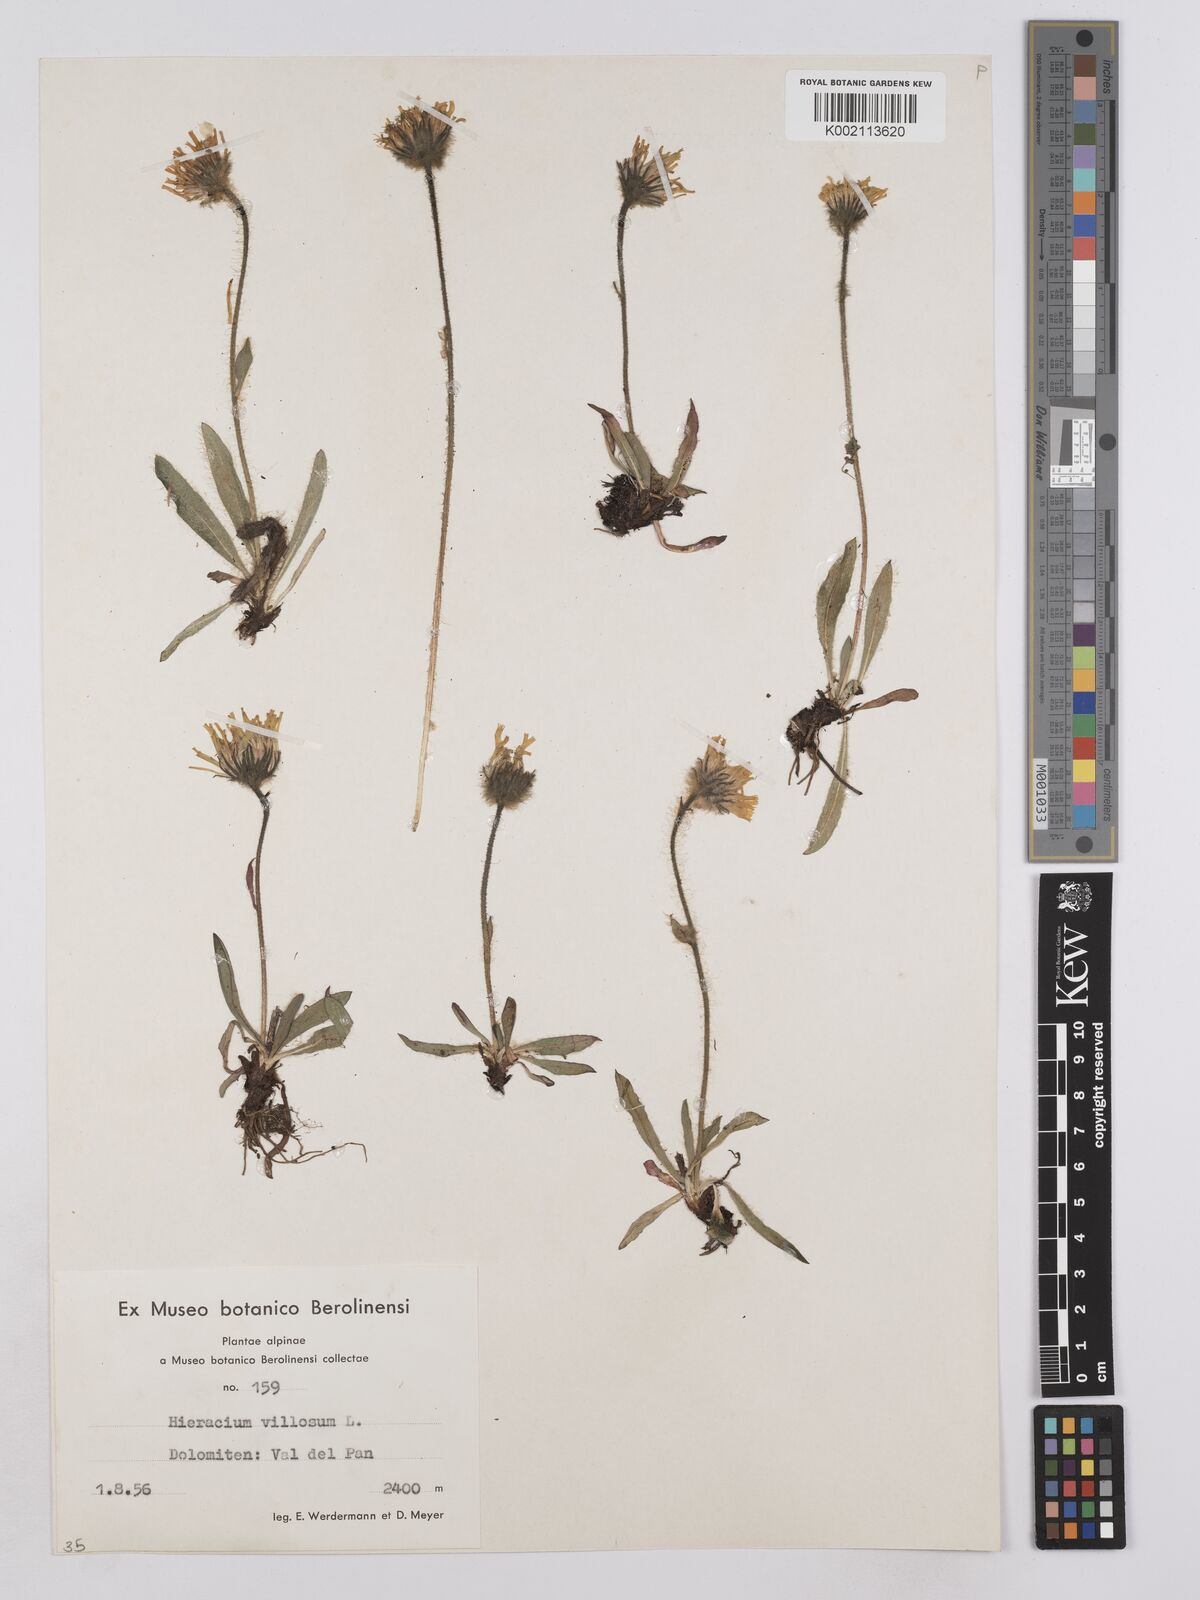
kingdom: Plantae
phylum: Tracheophyta
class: Magnoliopsida
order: Asterales
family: Asteraceae
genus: Hieracium
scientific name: Hieracium villosum
